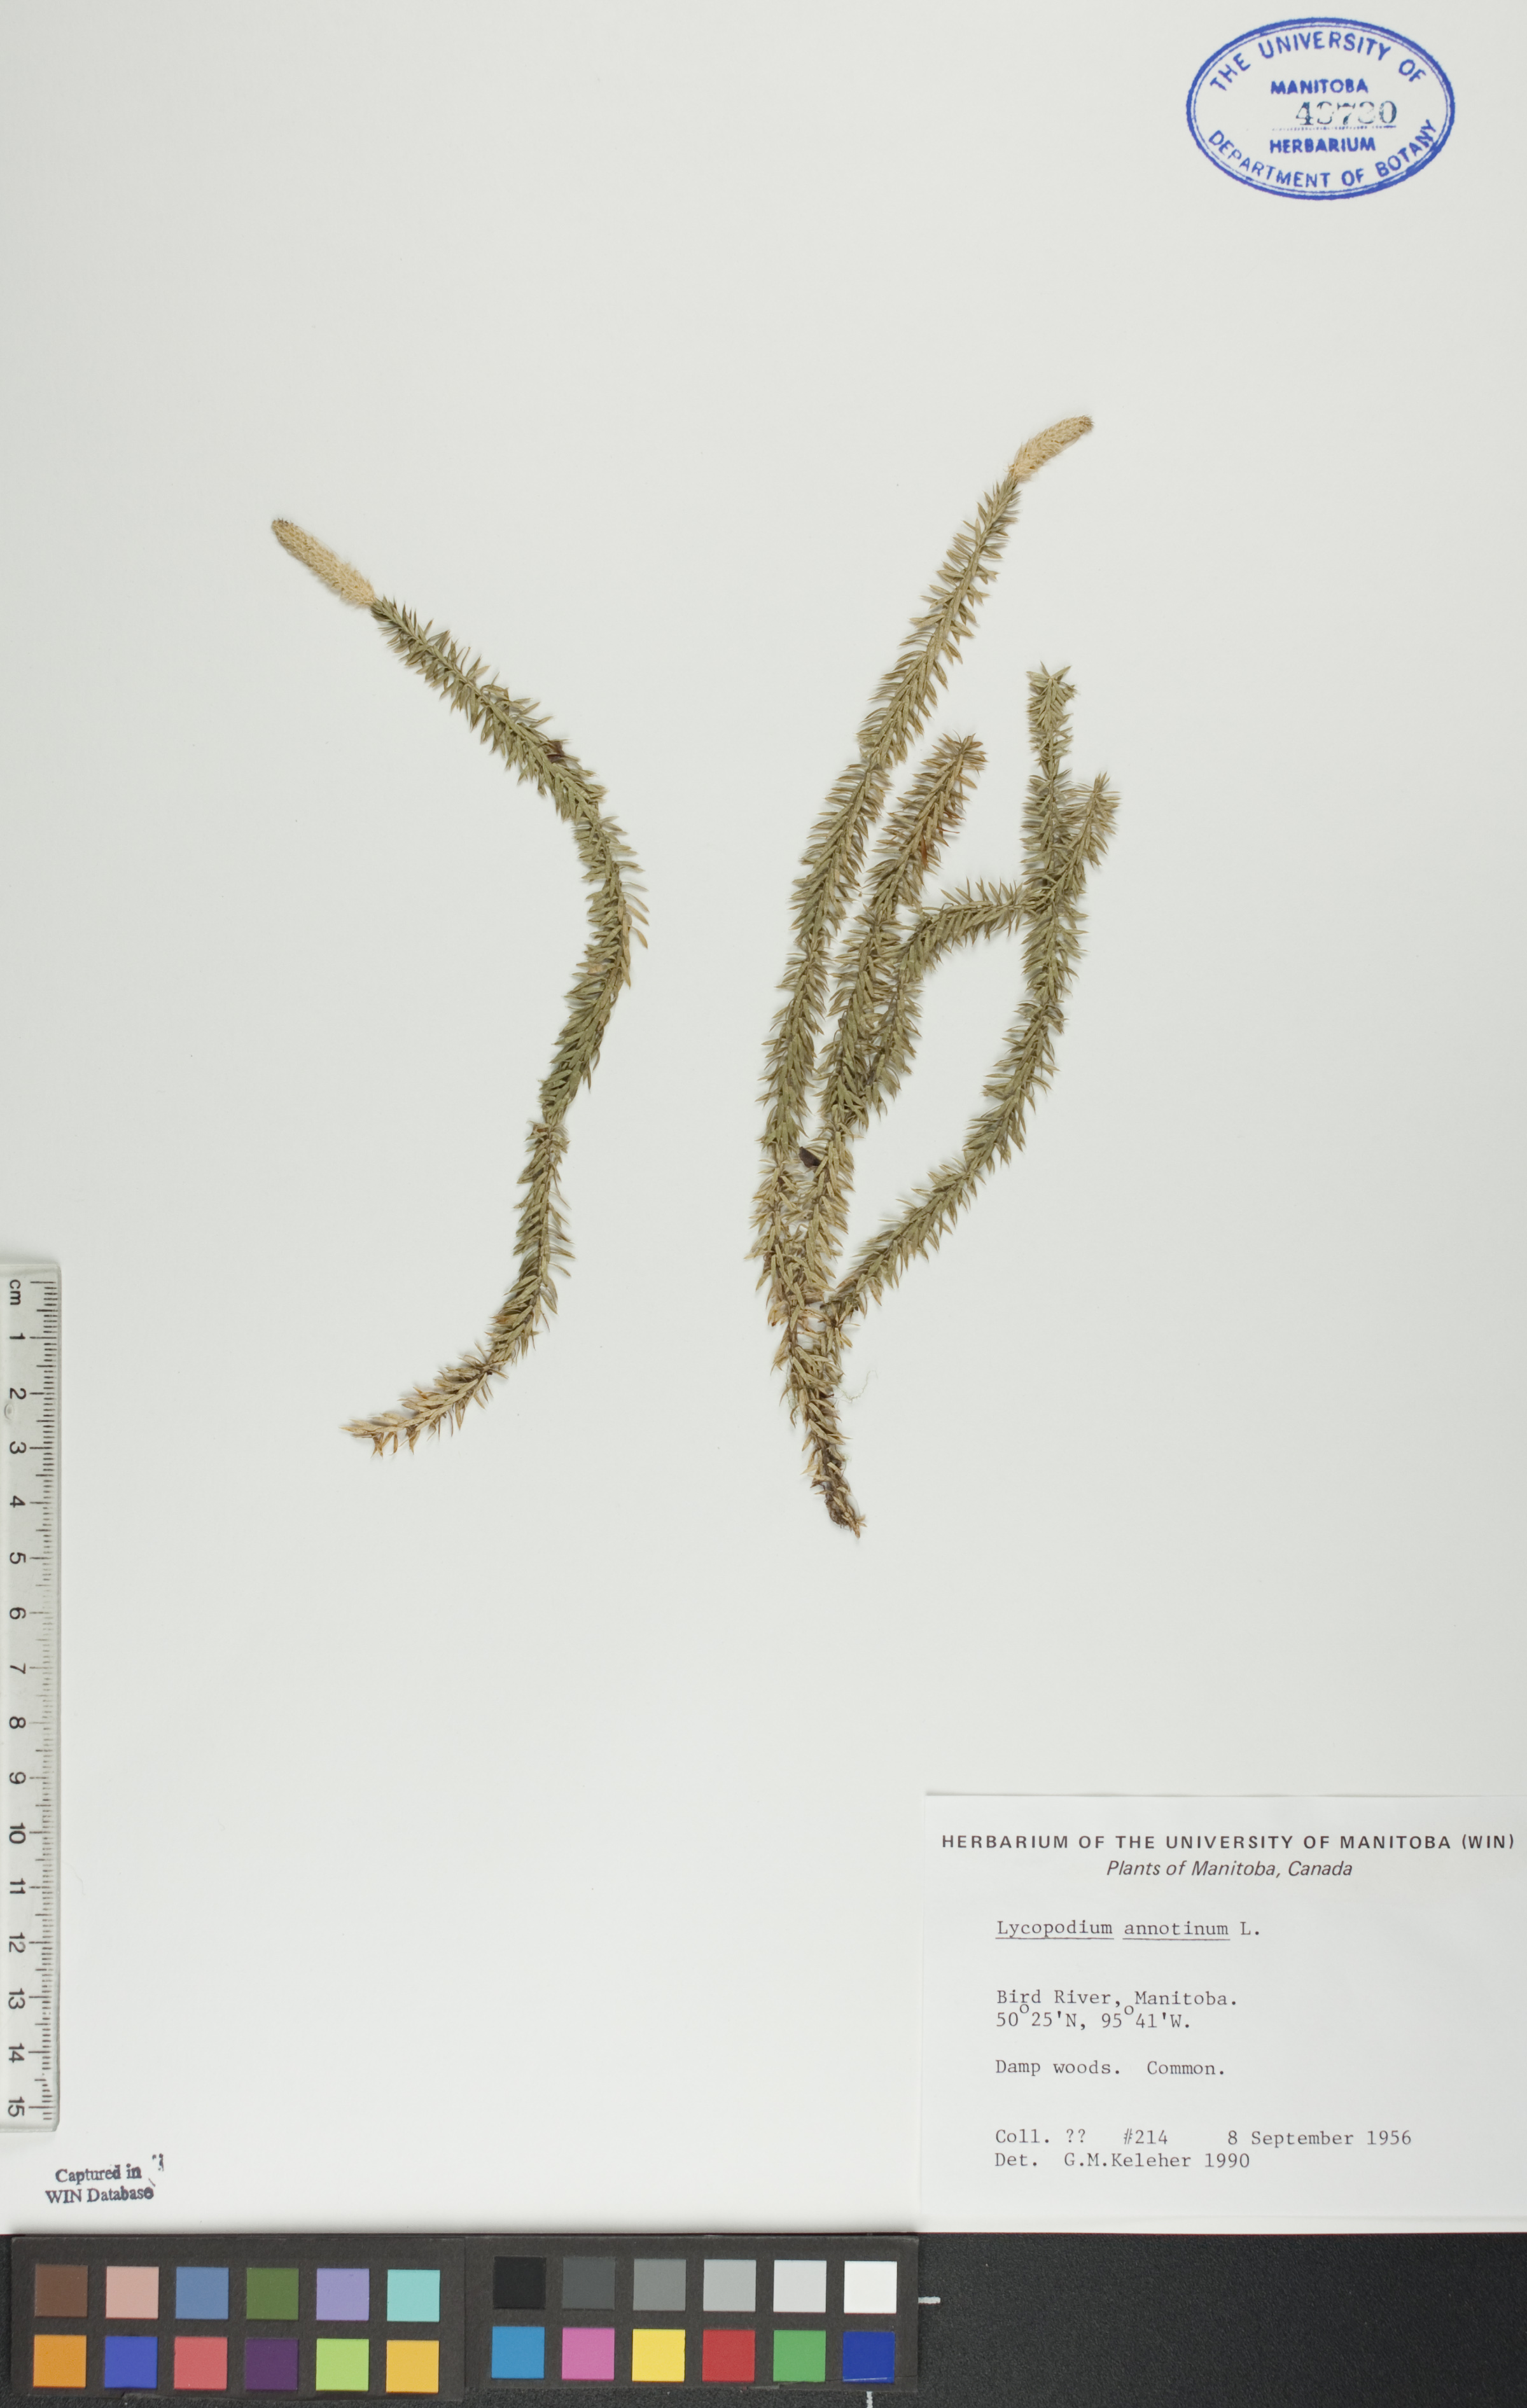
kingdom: Plantae
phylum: Tracheophyta
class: Lycopodiopsida
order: Lycopodiales
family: Lycopodiaceae
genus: Spinulum
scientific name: Spinulum annotinum
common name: Interrupted club-moss
